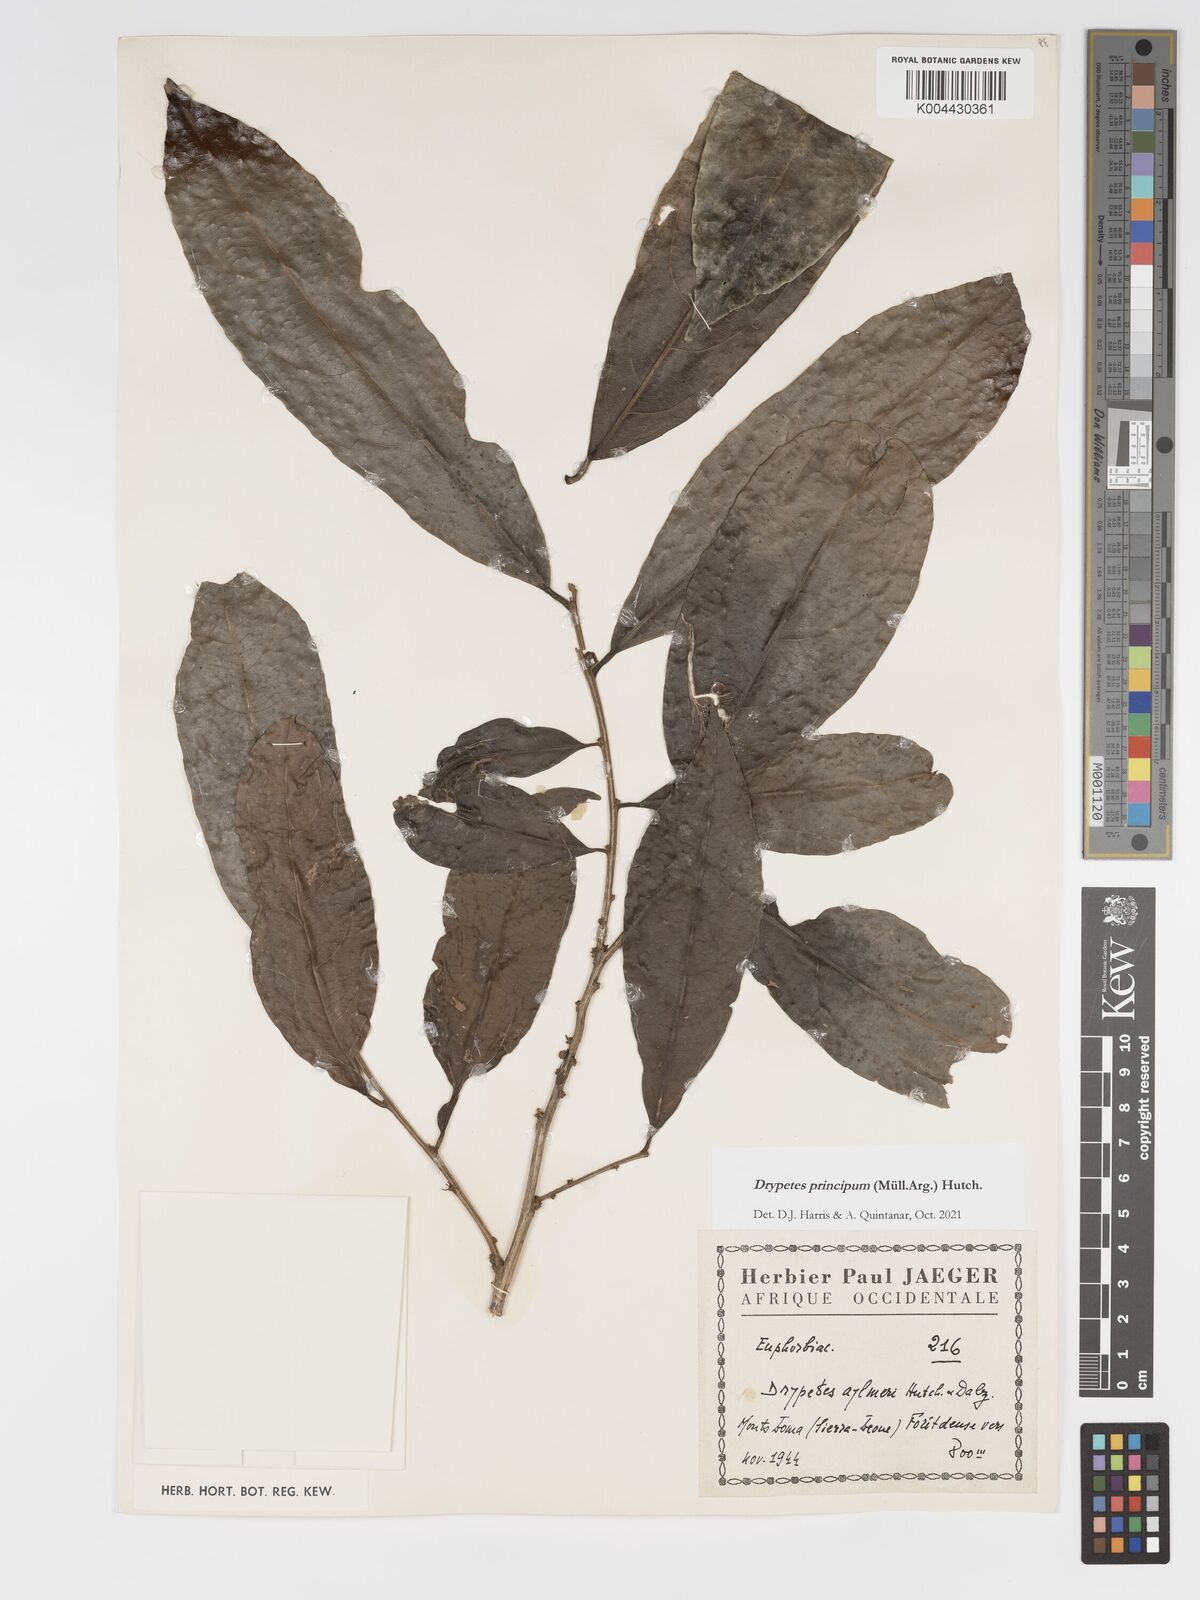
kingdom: Plantae
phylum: Tracheophyta
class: Magnoliopsida
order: Malpighiales
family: Putranjivaceae
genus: Drypetes
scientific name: Drypetes principum
